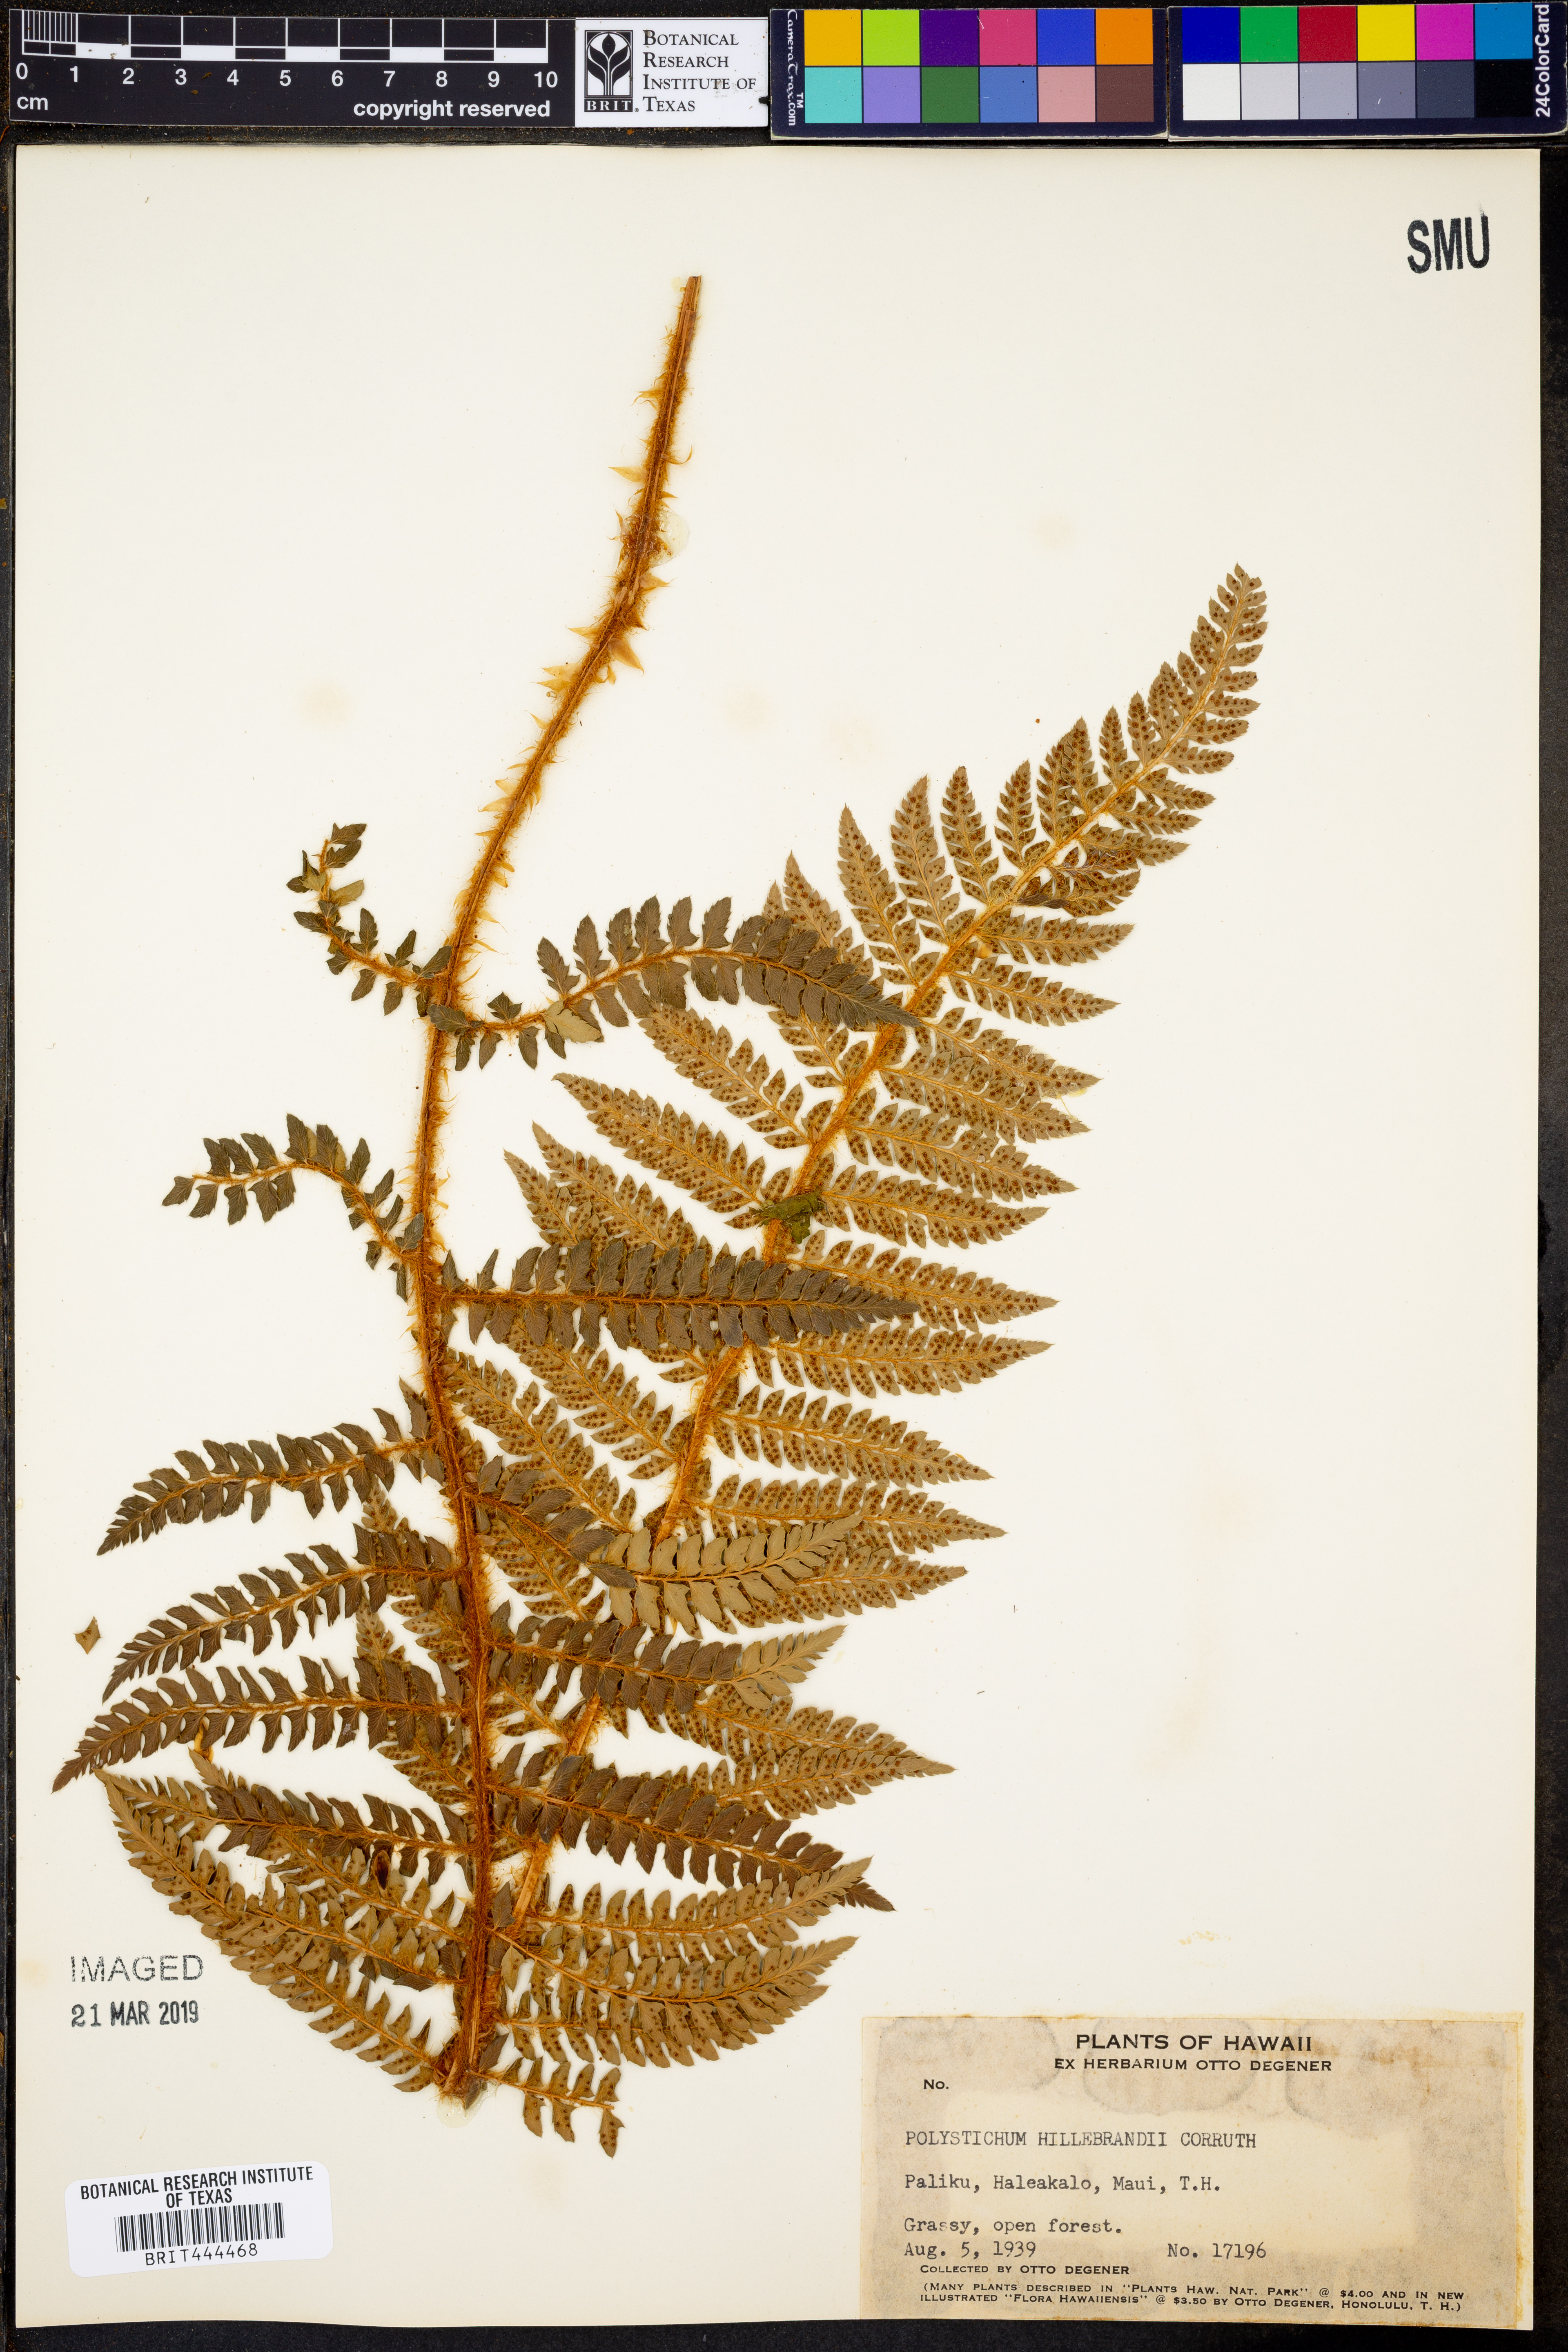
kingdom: Plantae
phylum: Tracheophyta
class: Polypodiopsida
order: Polypodiales
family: Dryopteridaceae
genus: Polystichum
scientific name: Polystichum hillebrandii
